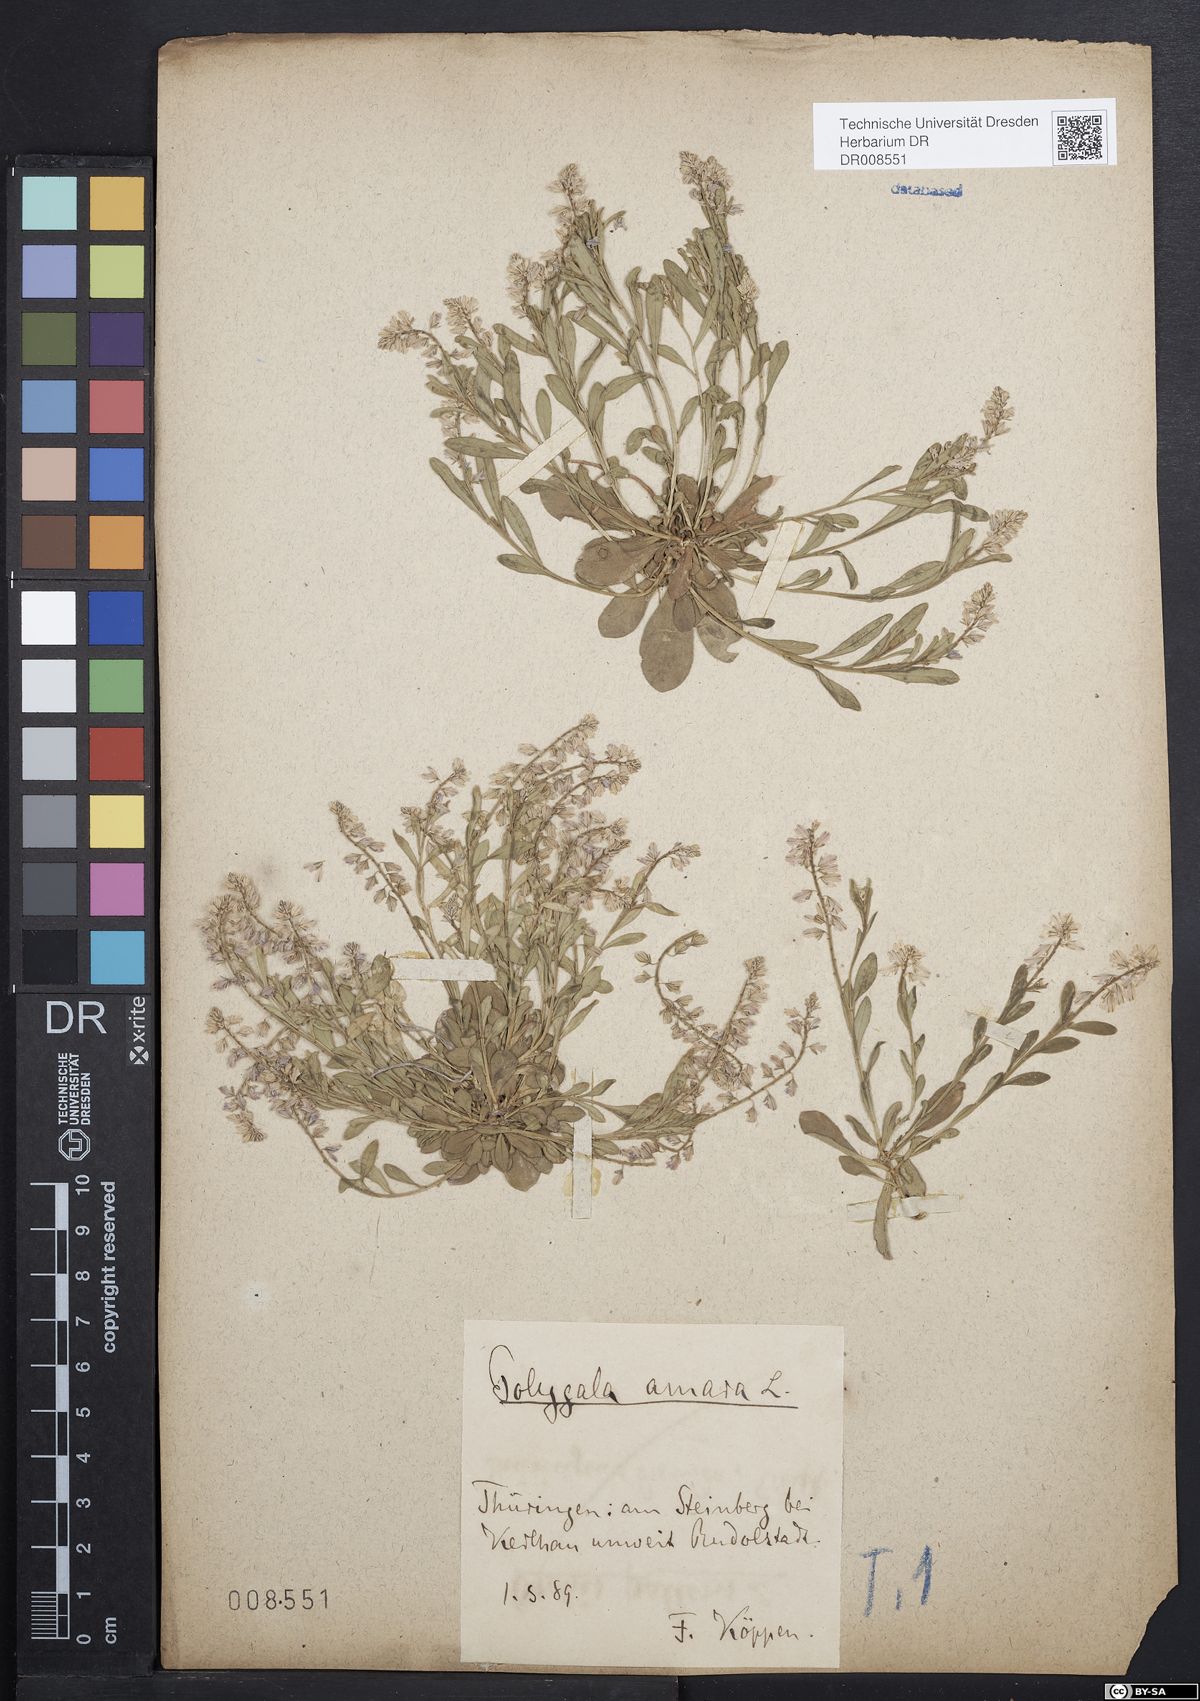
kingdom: Plantae
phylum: Tracheophyta
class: Magnoliopsida
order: Fabales
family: Polygalaceae
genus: Polygala
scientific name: Polygala amarella
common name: Dwarf milkwort
